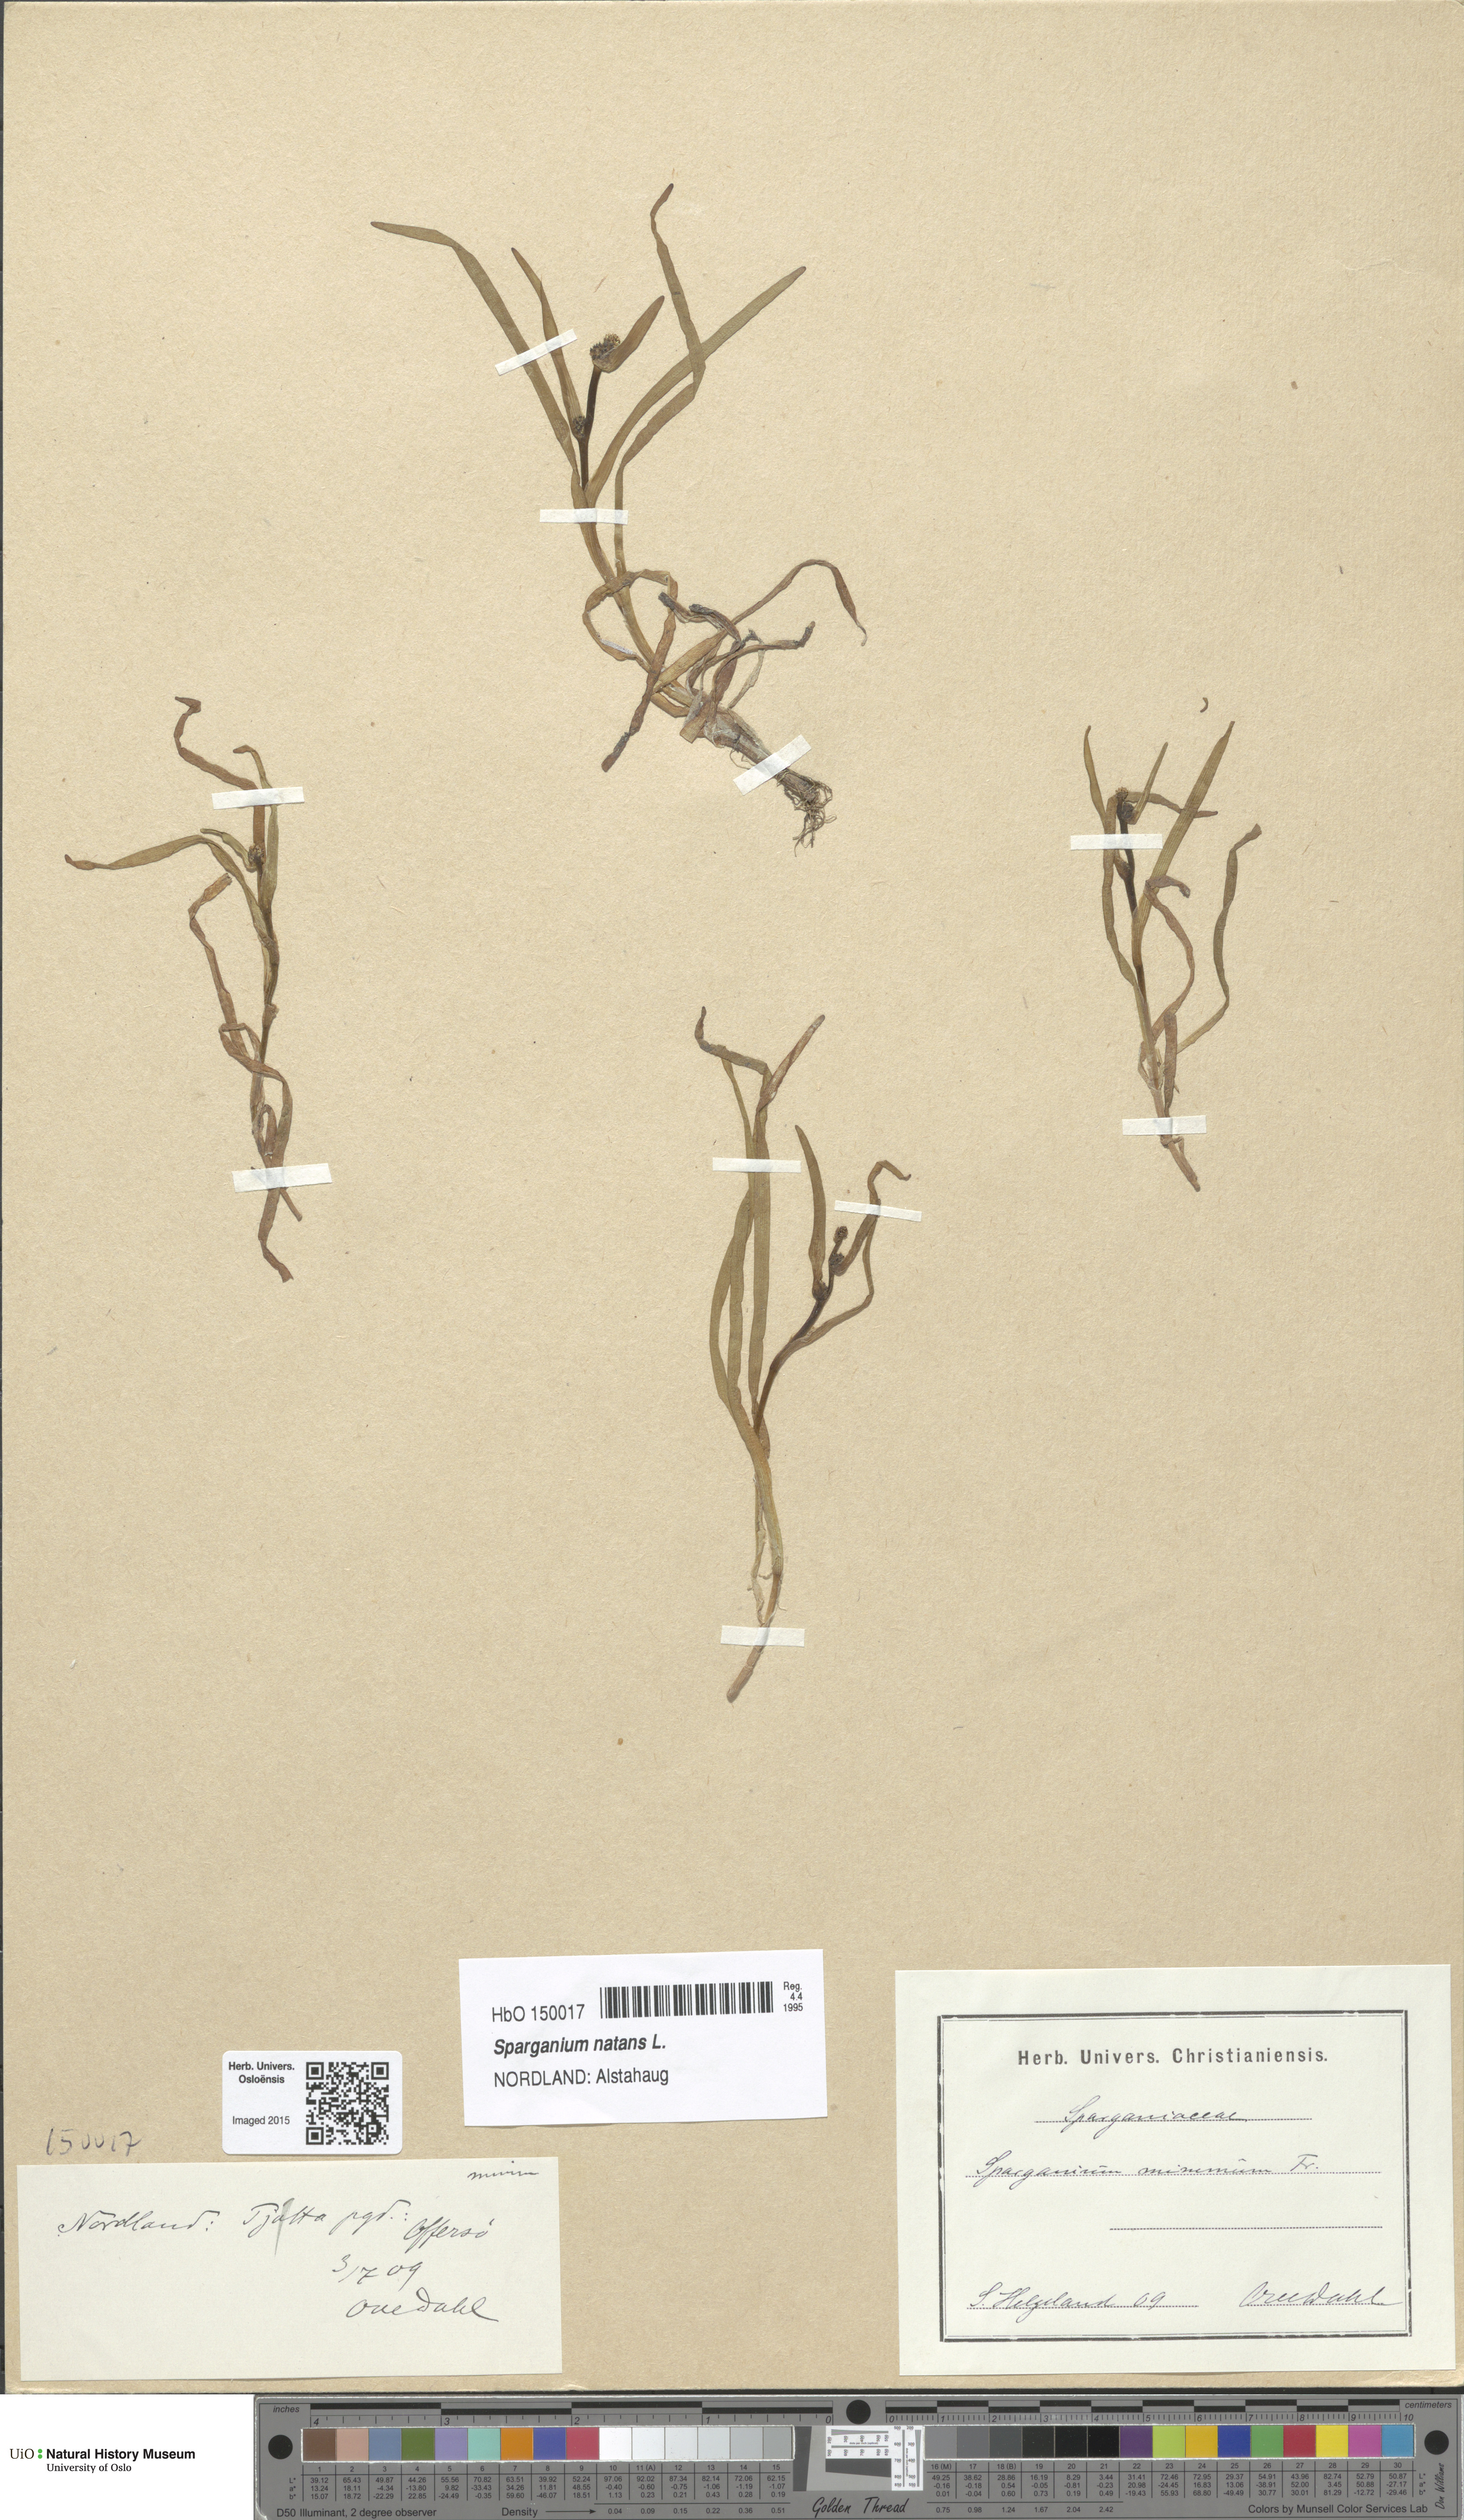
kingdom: Plantae
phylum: Tracheophyta
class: Liliopsida
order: Poales
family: Typhaceae
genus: Sparganium
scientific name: Sparganium natans
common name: Least bur-reed
